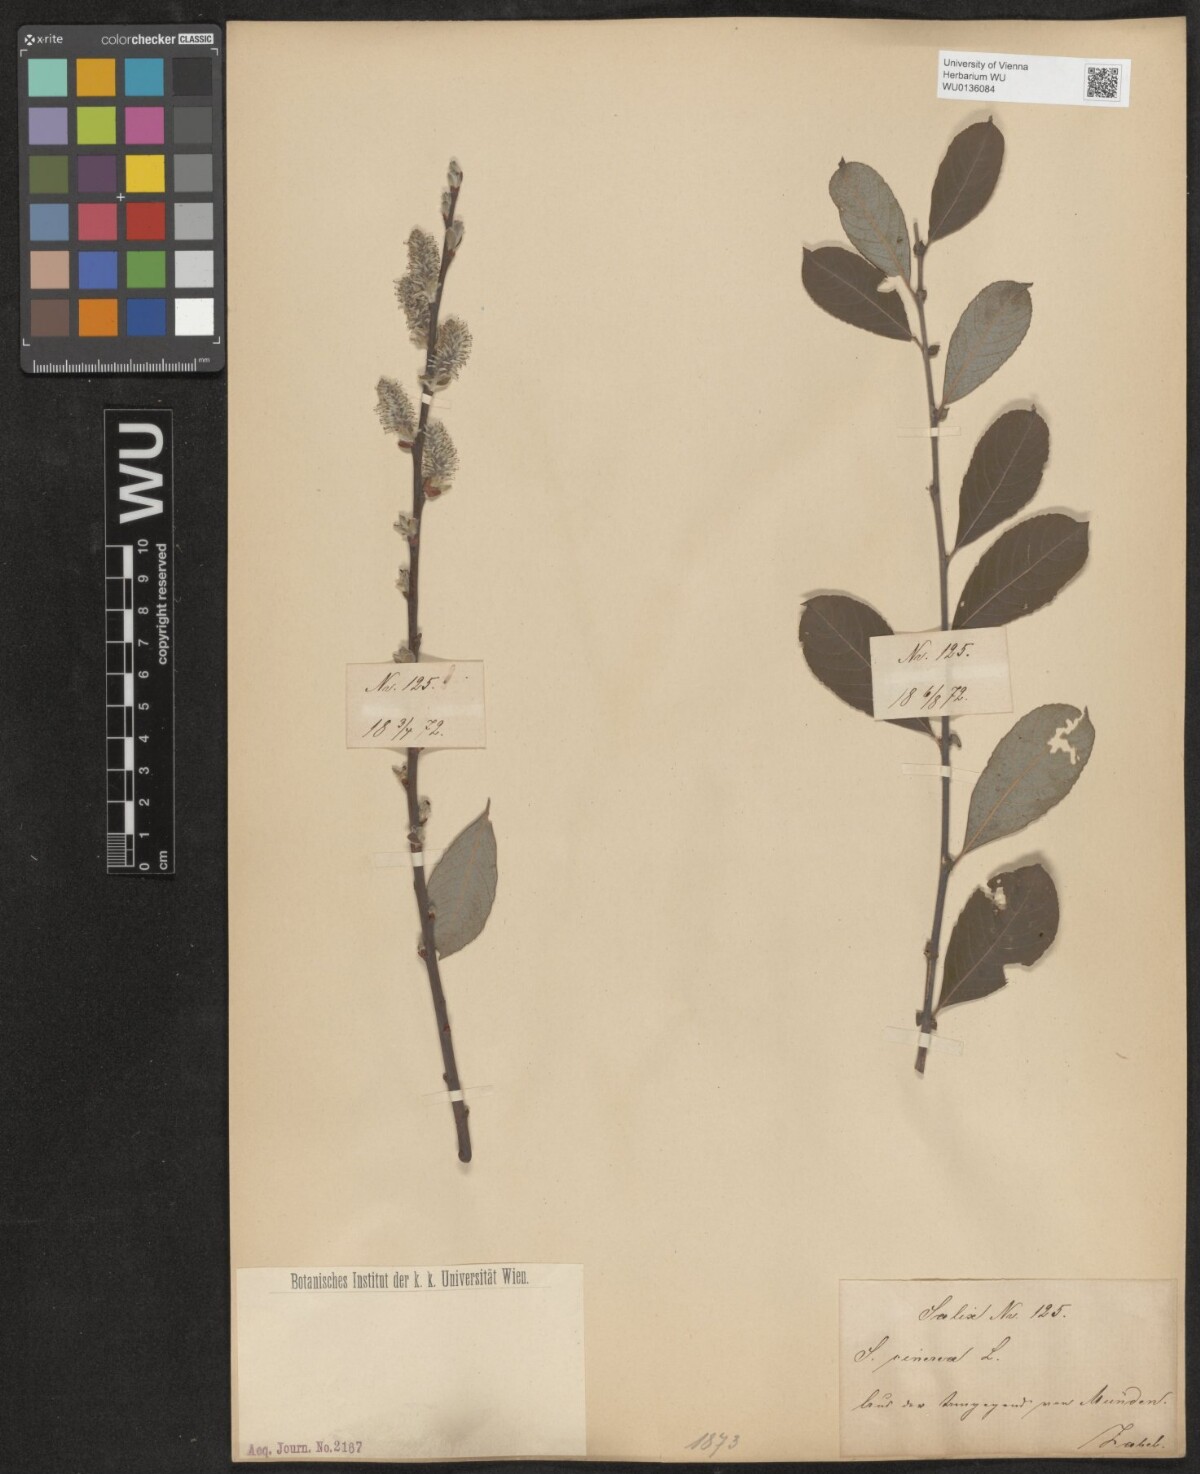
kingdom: Plantae
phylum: Tracheophyta
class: Magnoliopsida
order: Malpighiales
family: Salicaceae
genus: Salix
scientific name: Salix cinerea
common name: Common sallow
